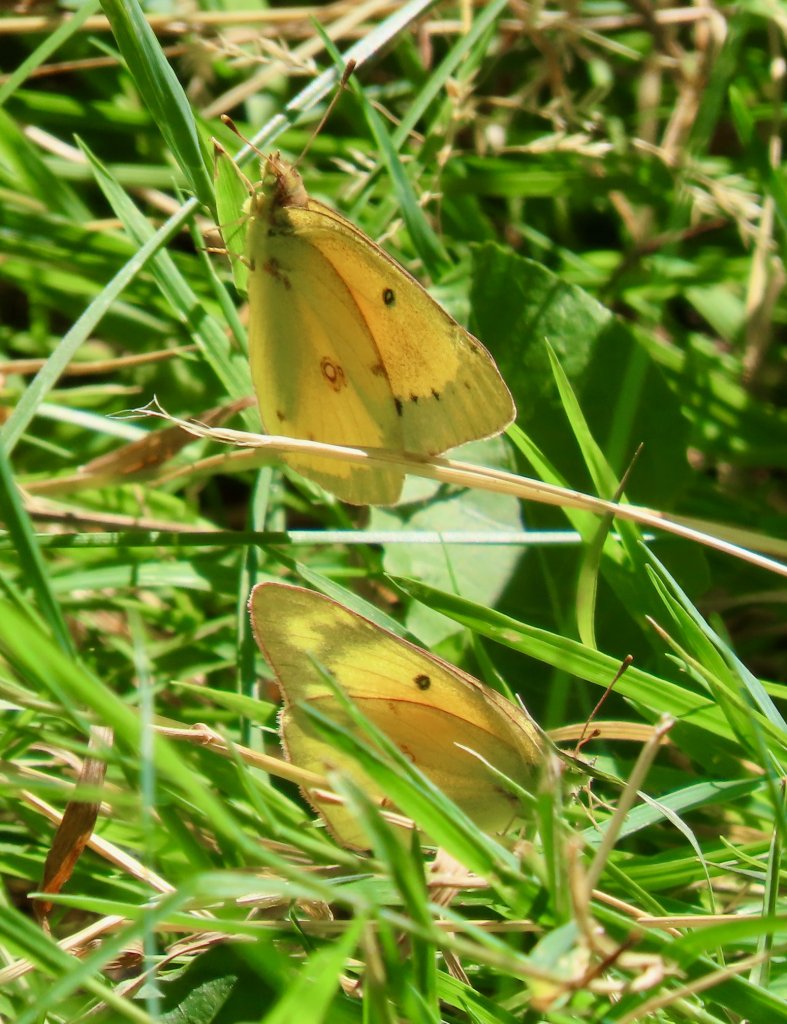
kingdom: Animalia
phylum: Arthropoda
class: Insecta
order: Lepidoptera
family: Pieridae
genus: Colias
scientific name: Colias eurytheme
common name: Orange Sulphur
